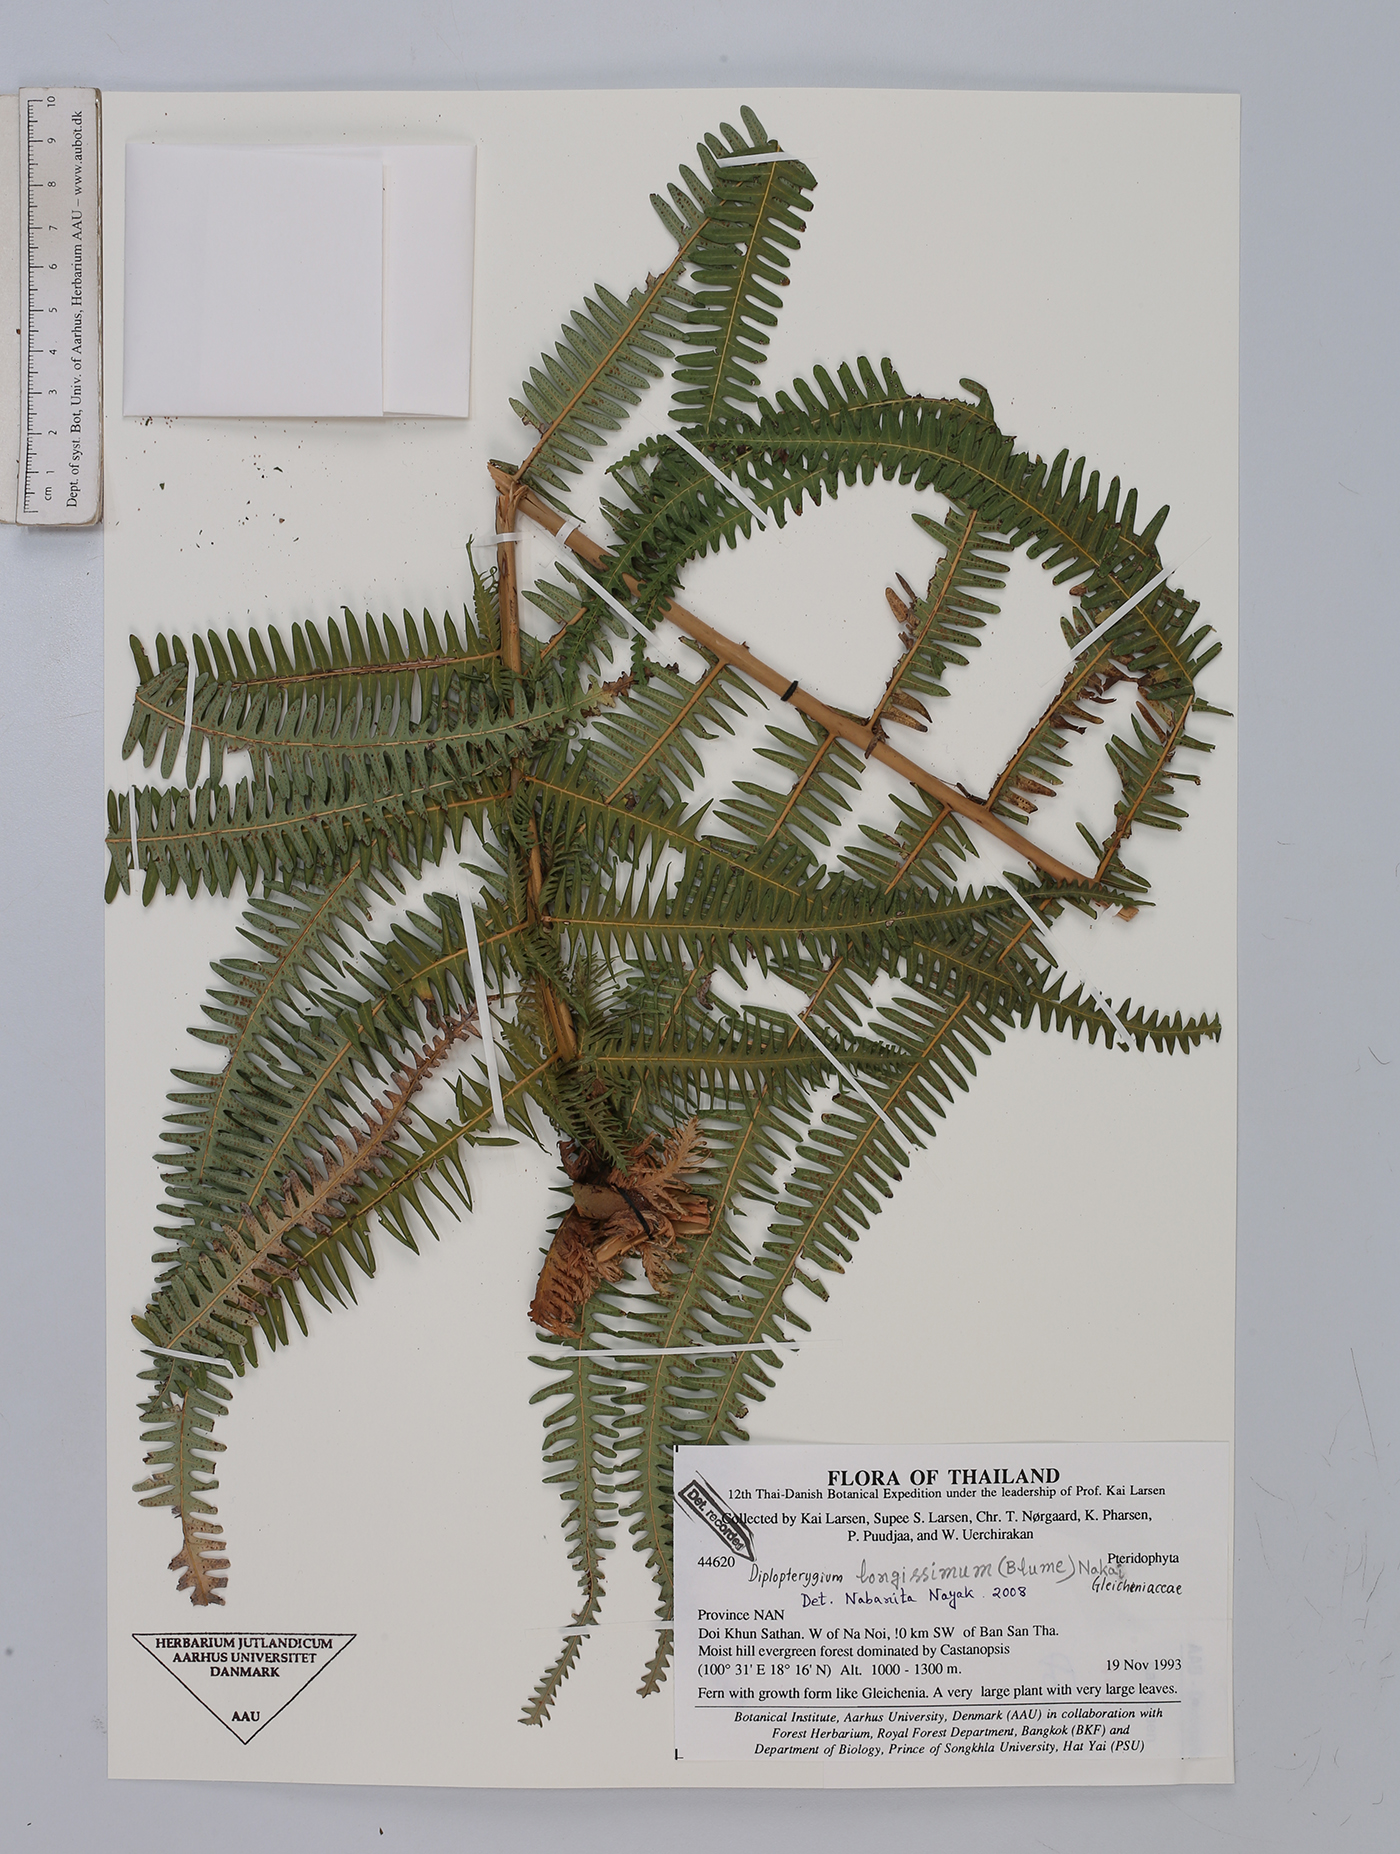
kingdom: Plantae
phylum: Tracheophyta
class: Polypodiopsida
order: Gleicheniales
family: Gleicheniaceae
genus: Diplopterygium
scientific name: Diplopterygium longissimum
